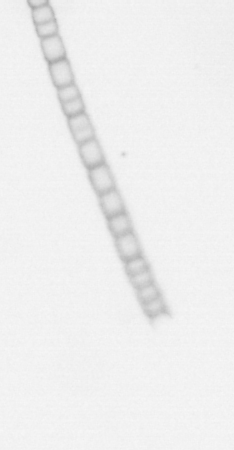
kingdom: Chromista
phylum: Ochrophyta
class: Bacillariophyceae
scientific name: Bacillariophyceae
